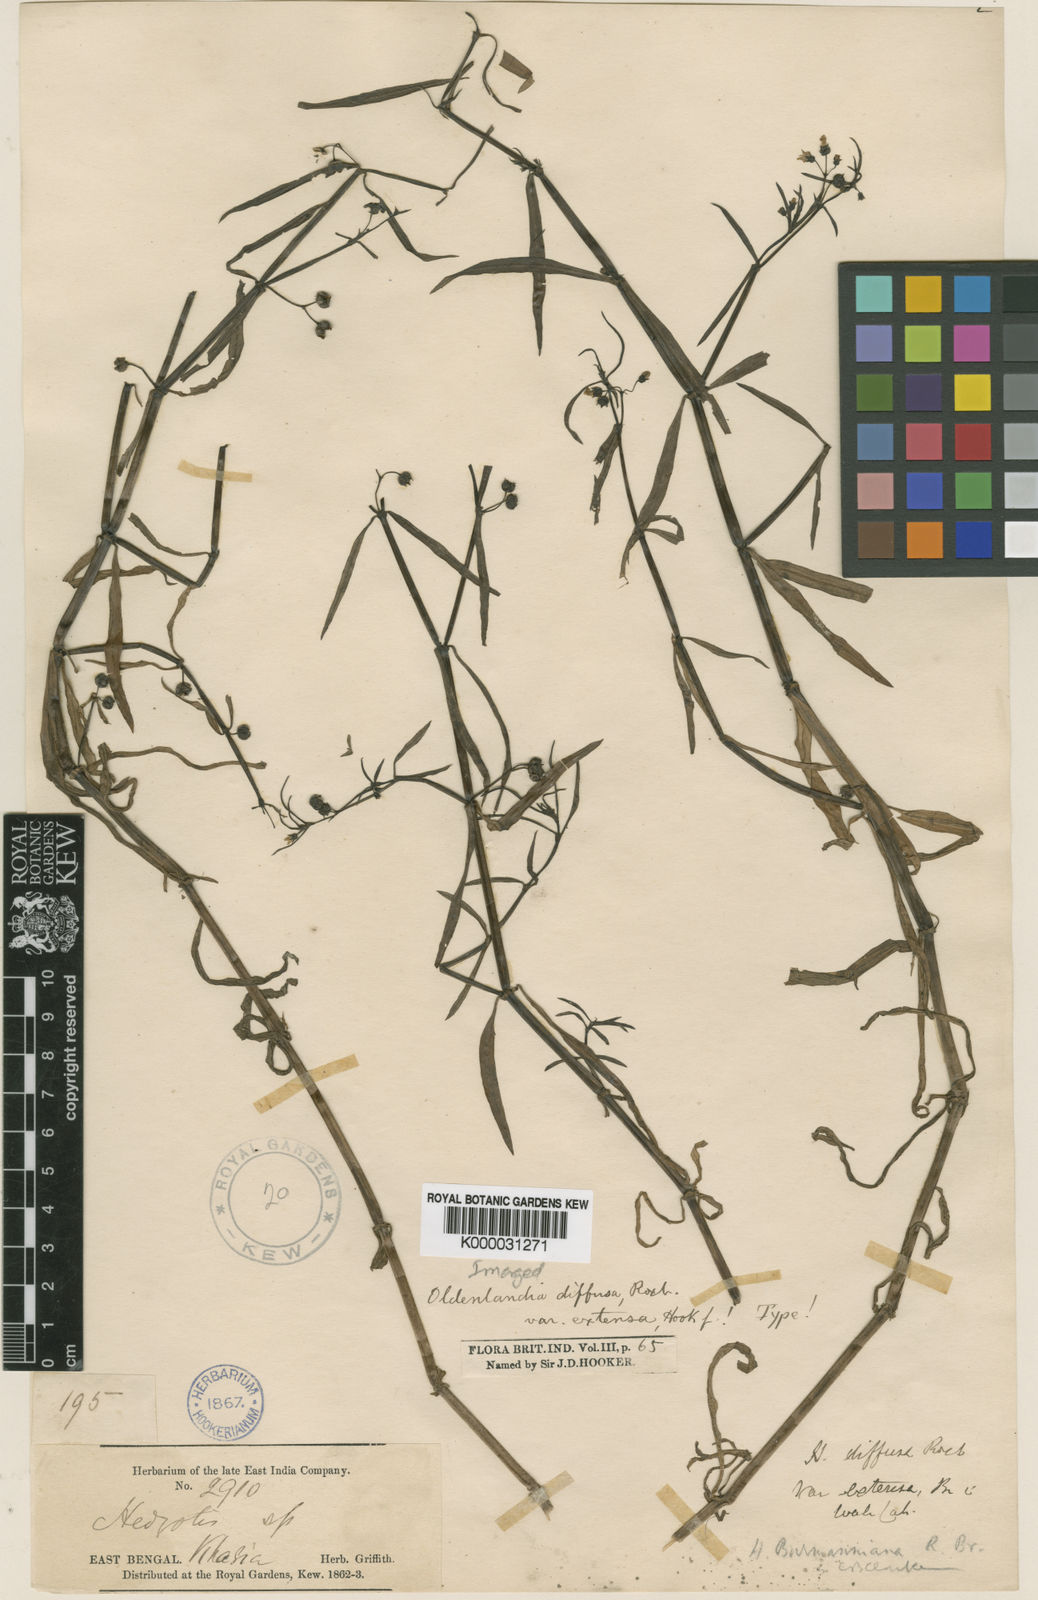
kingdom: Plantae
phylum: Tracheophyta
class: Magnoliopsida
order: Gentianales
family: Rubiaceae
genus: Scleromitrion
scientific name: Scleromitrion diffusum
